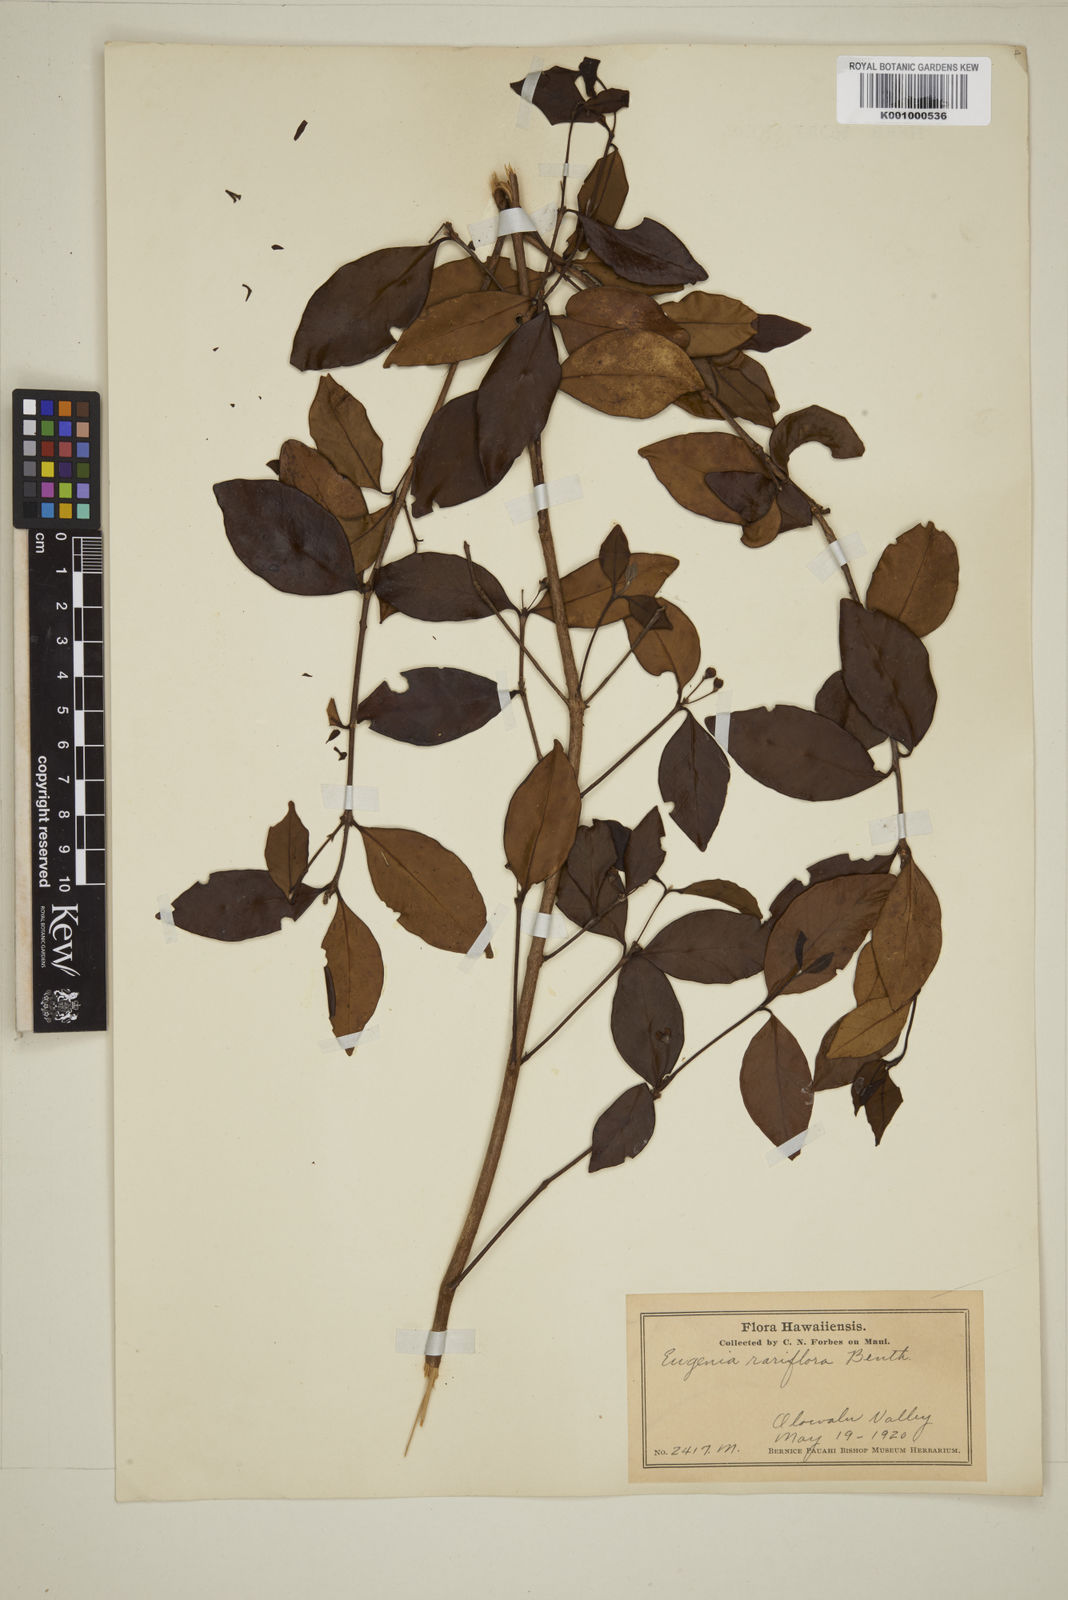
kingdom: Plantae
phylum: Tracheophyta
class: Magnoliopsida
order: Myrtales
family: Myrtaceae
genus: Eugenia
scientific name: Eugenia reinwardtiana
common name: Cedar bay-cherry
